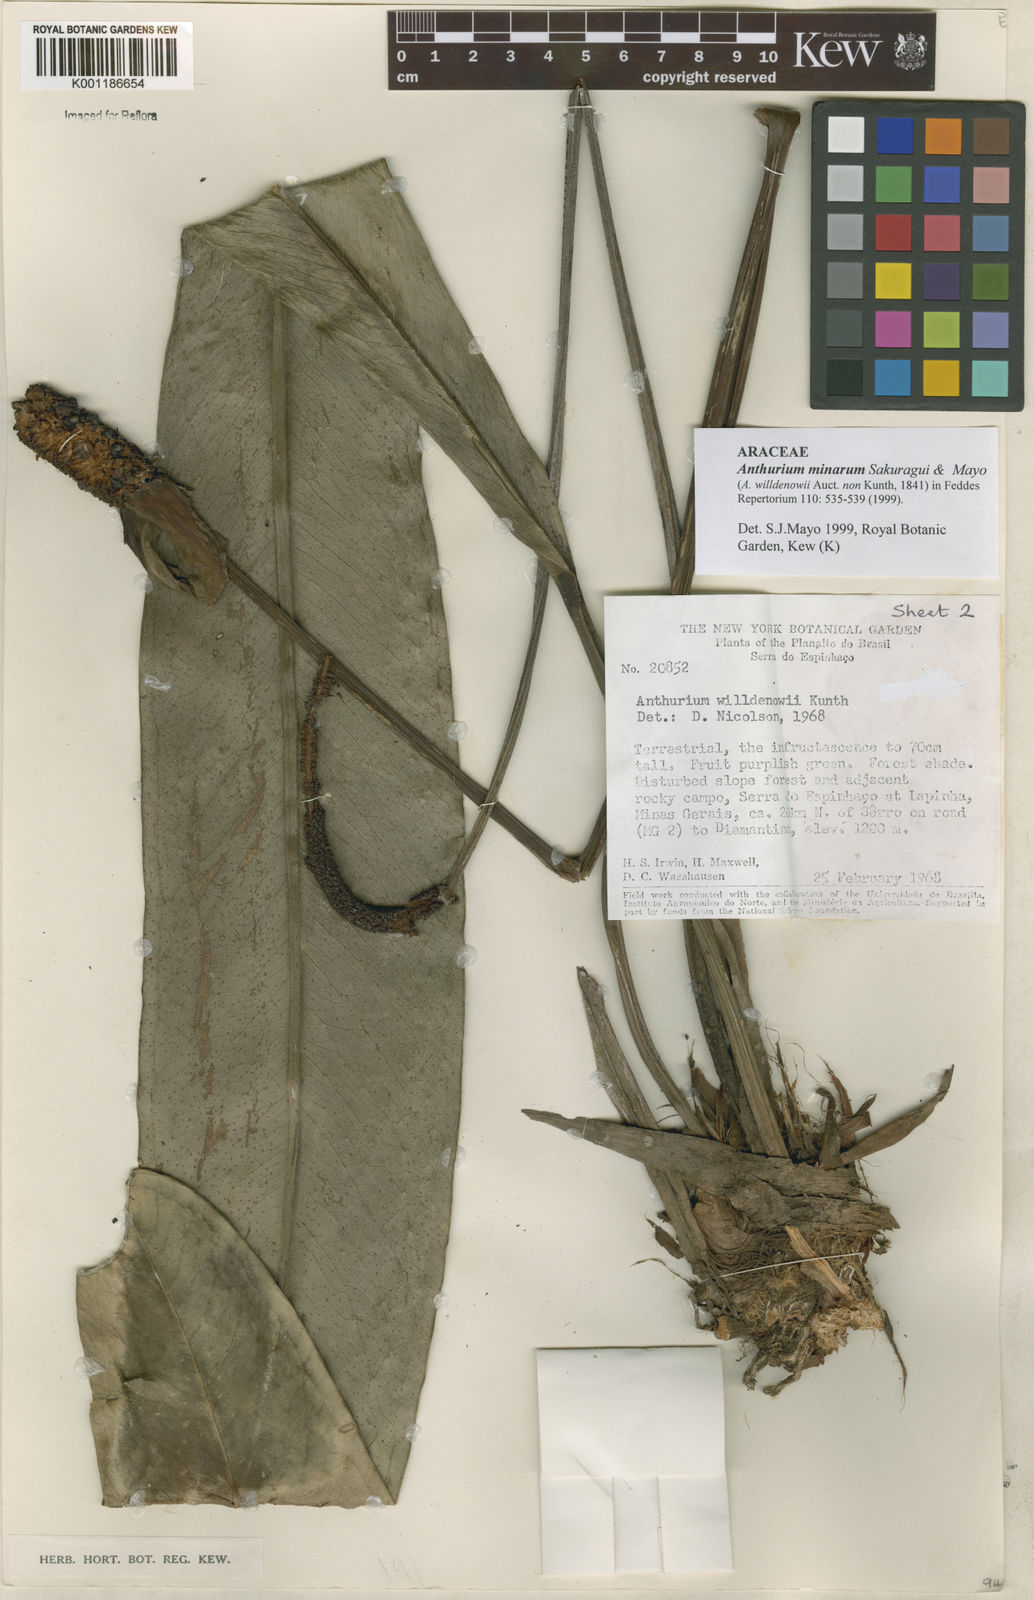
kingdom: Plantae
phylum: Tracheophyta
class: Liliopsida
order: Alismatales
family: Araceae
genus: Anthurium
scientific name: Anthurium minarum
